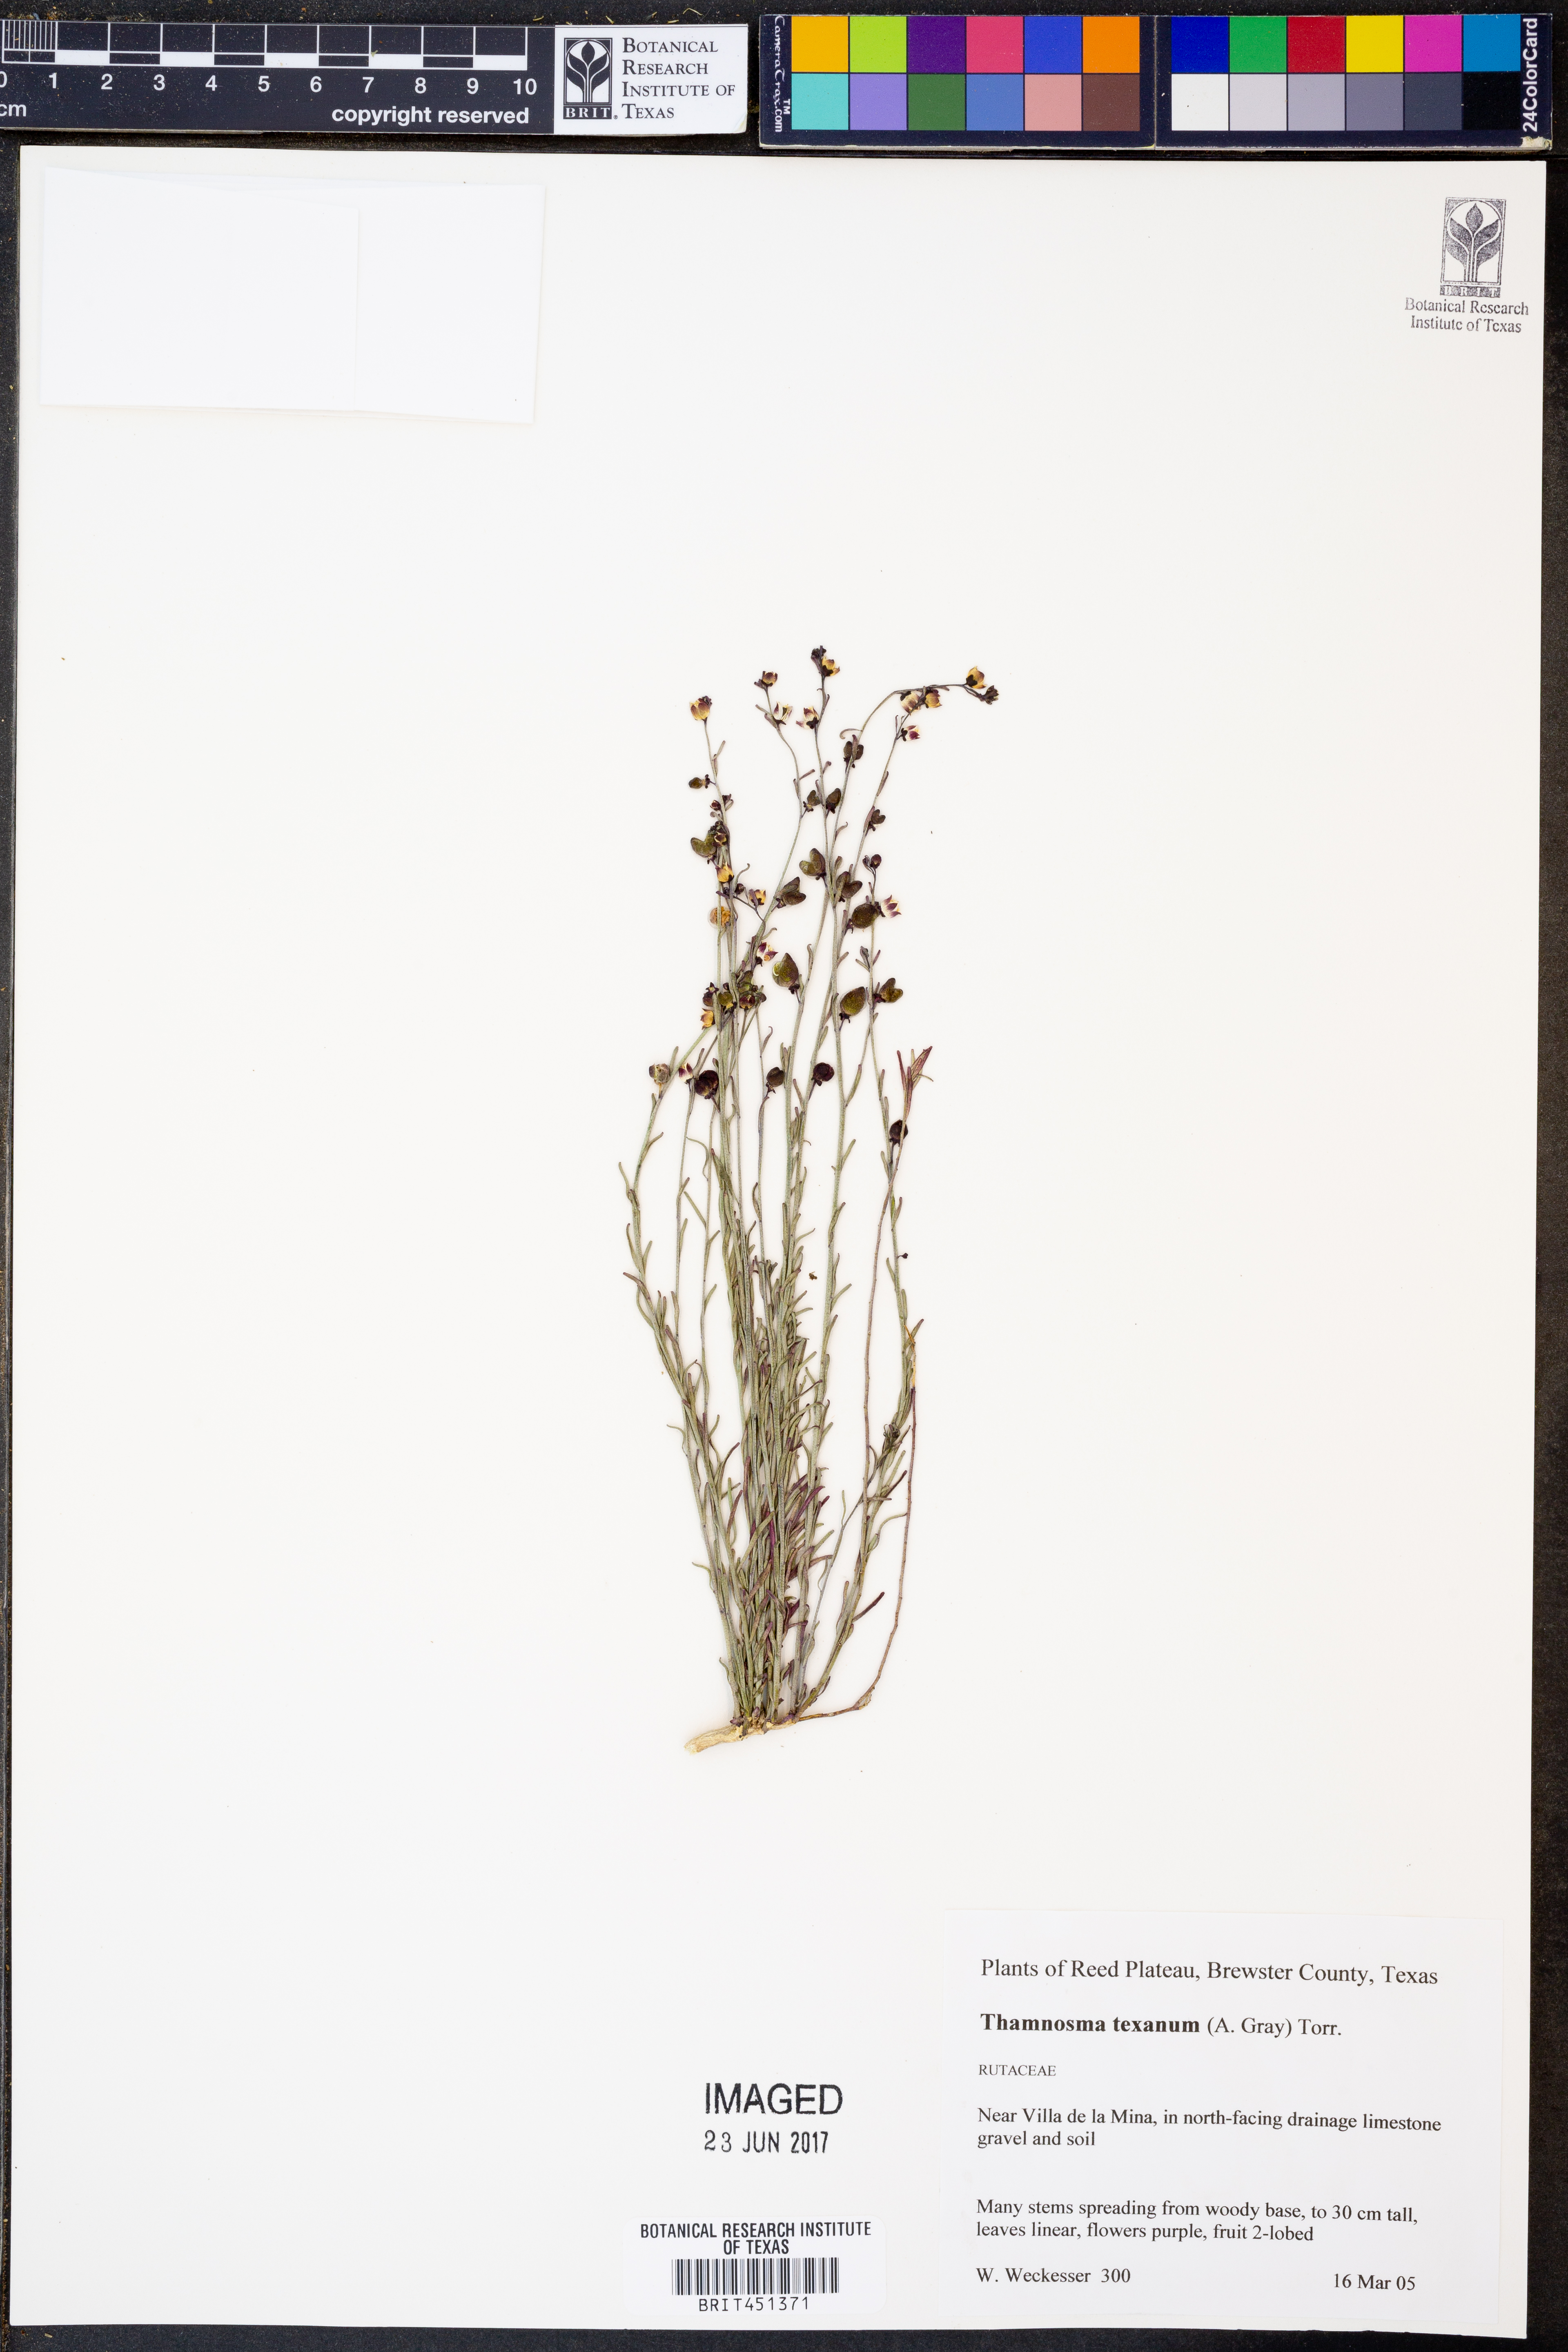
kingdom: Plantae
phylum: Tracheophyta
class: Magnoliopsida
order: Sapindales
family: Rutaceae
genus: Thamnosma
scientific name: Thamnosma texana
